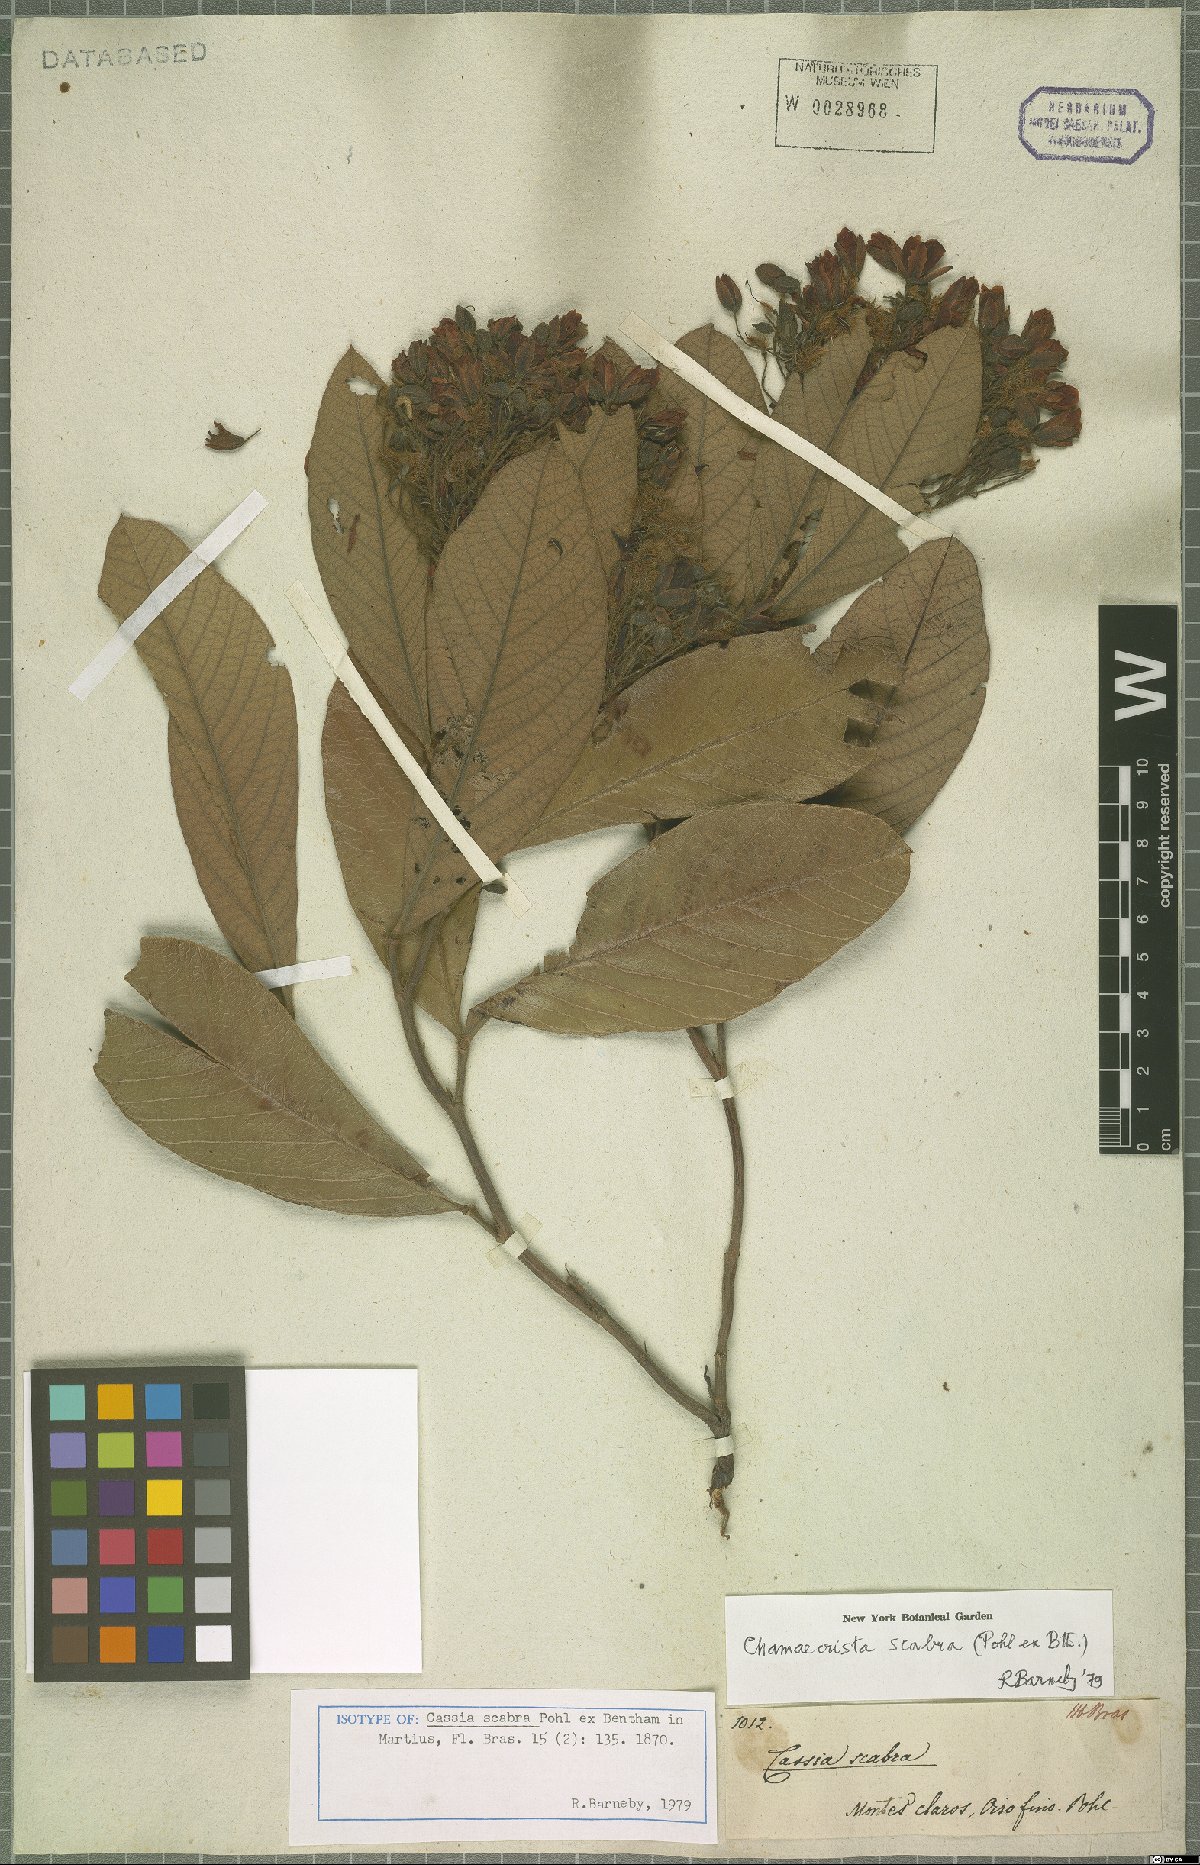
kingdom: Plantae
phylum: Tracheophyta
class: Magnoliopsida
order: Fabales
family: Fabaceae
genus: Chamaecrista
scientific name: Chamaecrista scabra
